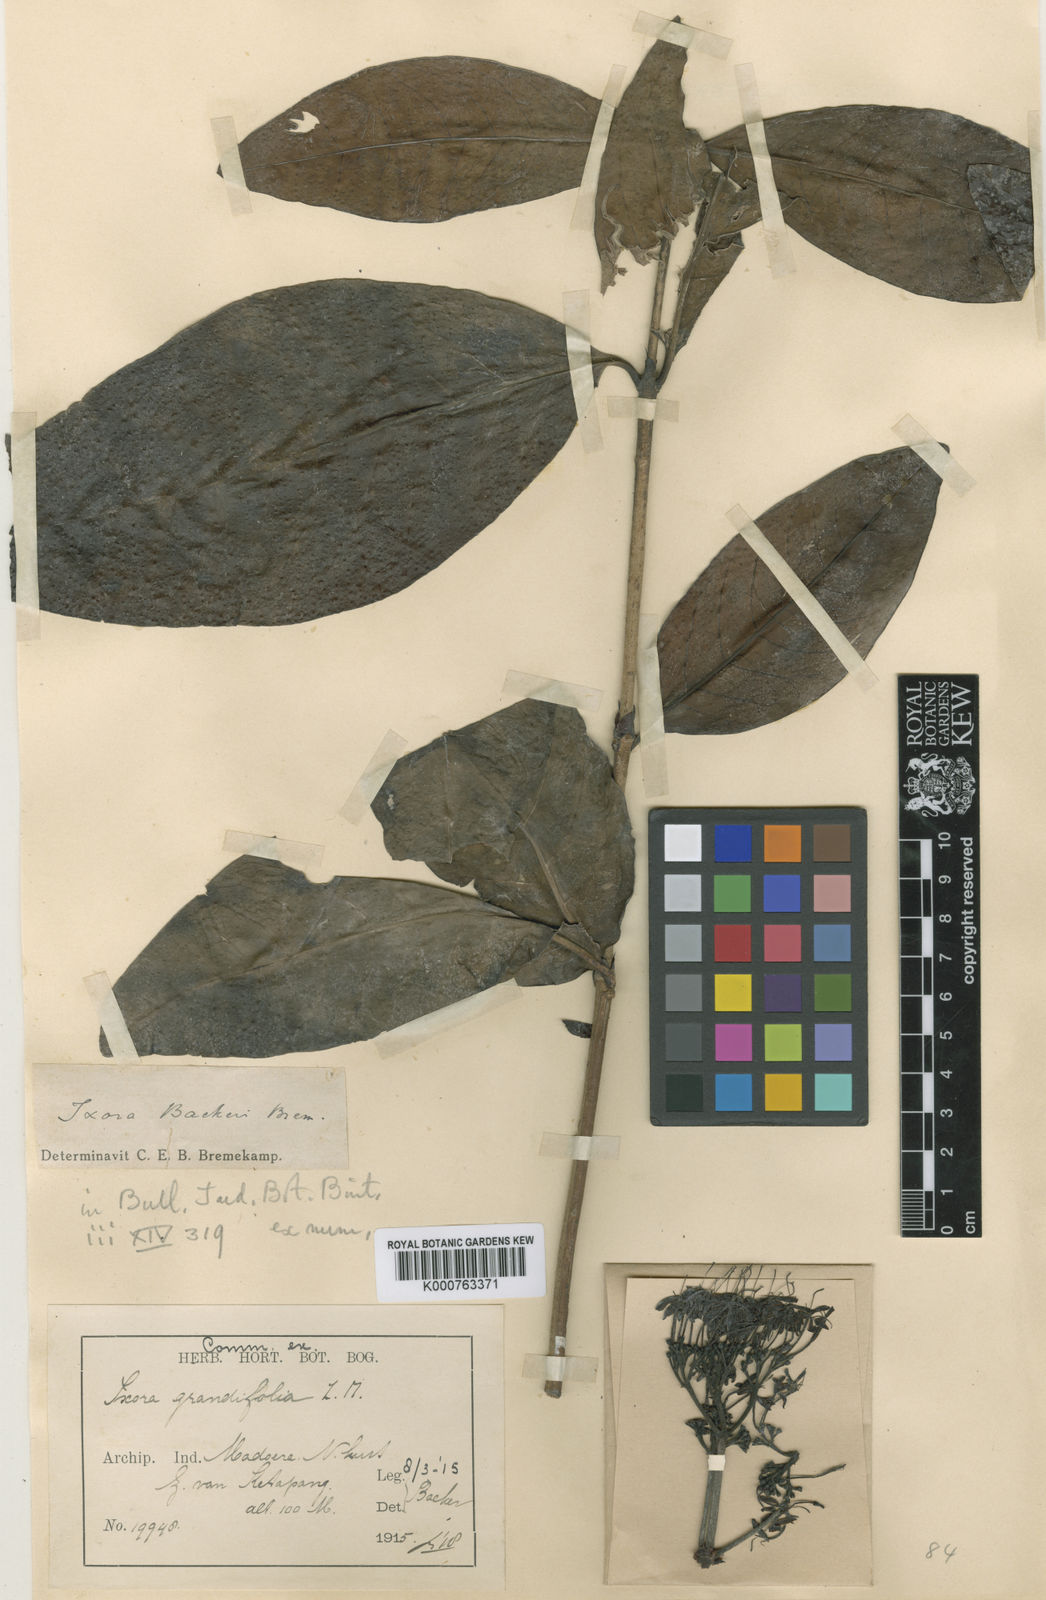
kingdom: Plantae
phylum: Tracheophyta
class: Magnoliopsida
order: Gentianales
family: Rubiaceae
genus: Ixora
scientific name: Ixora backeri
